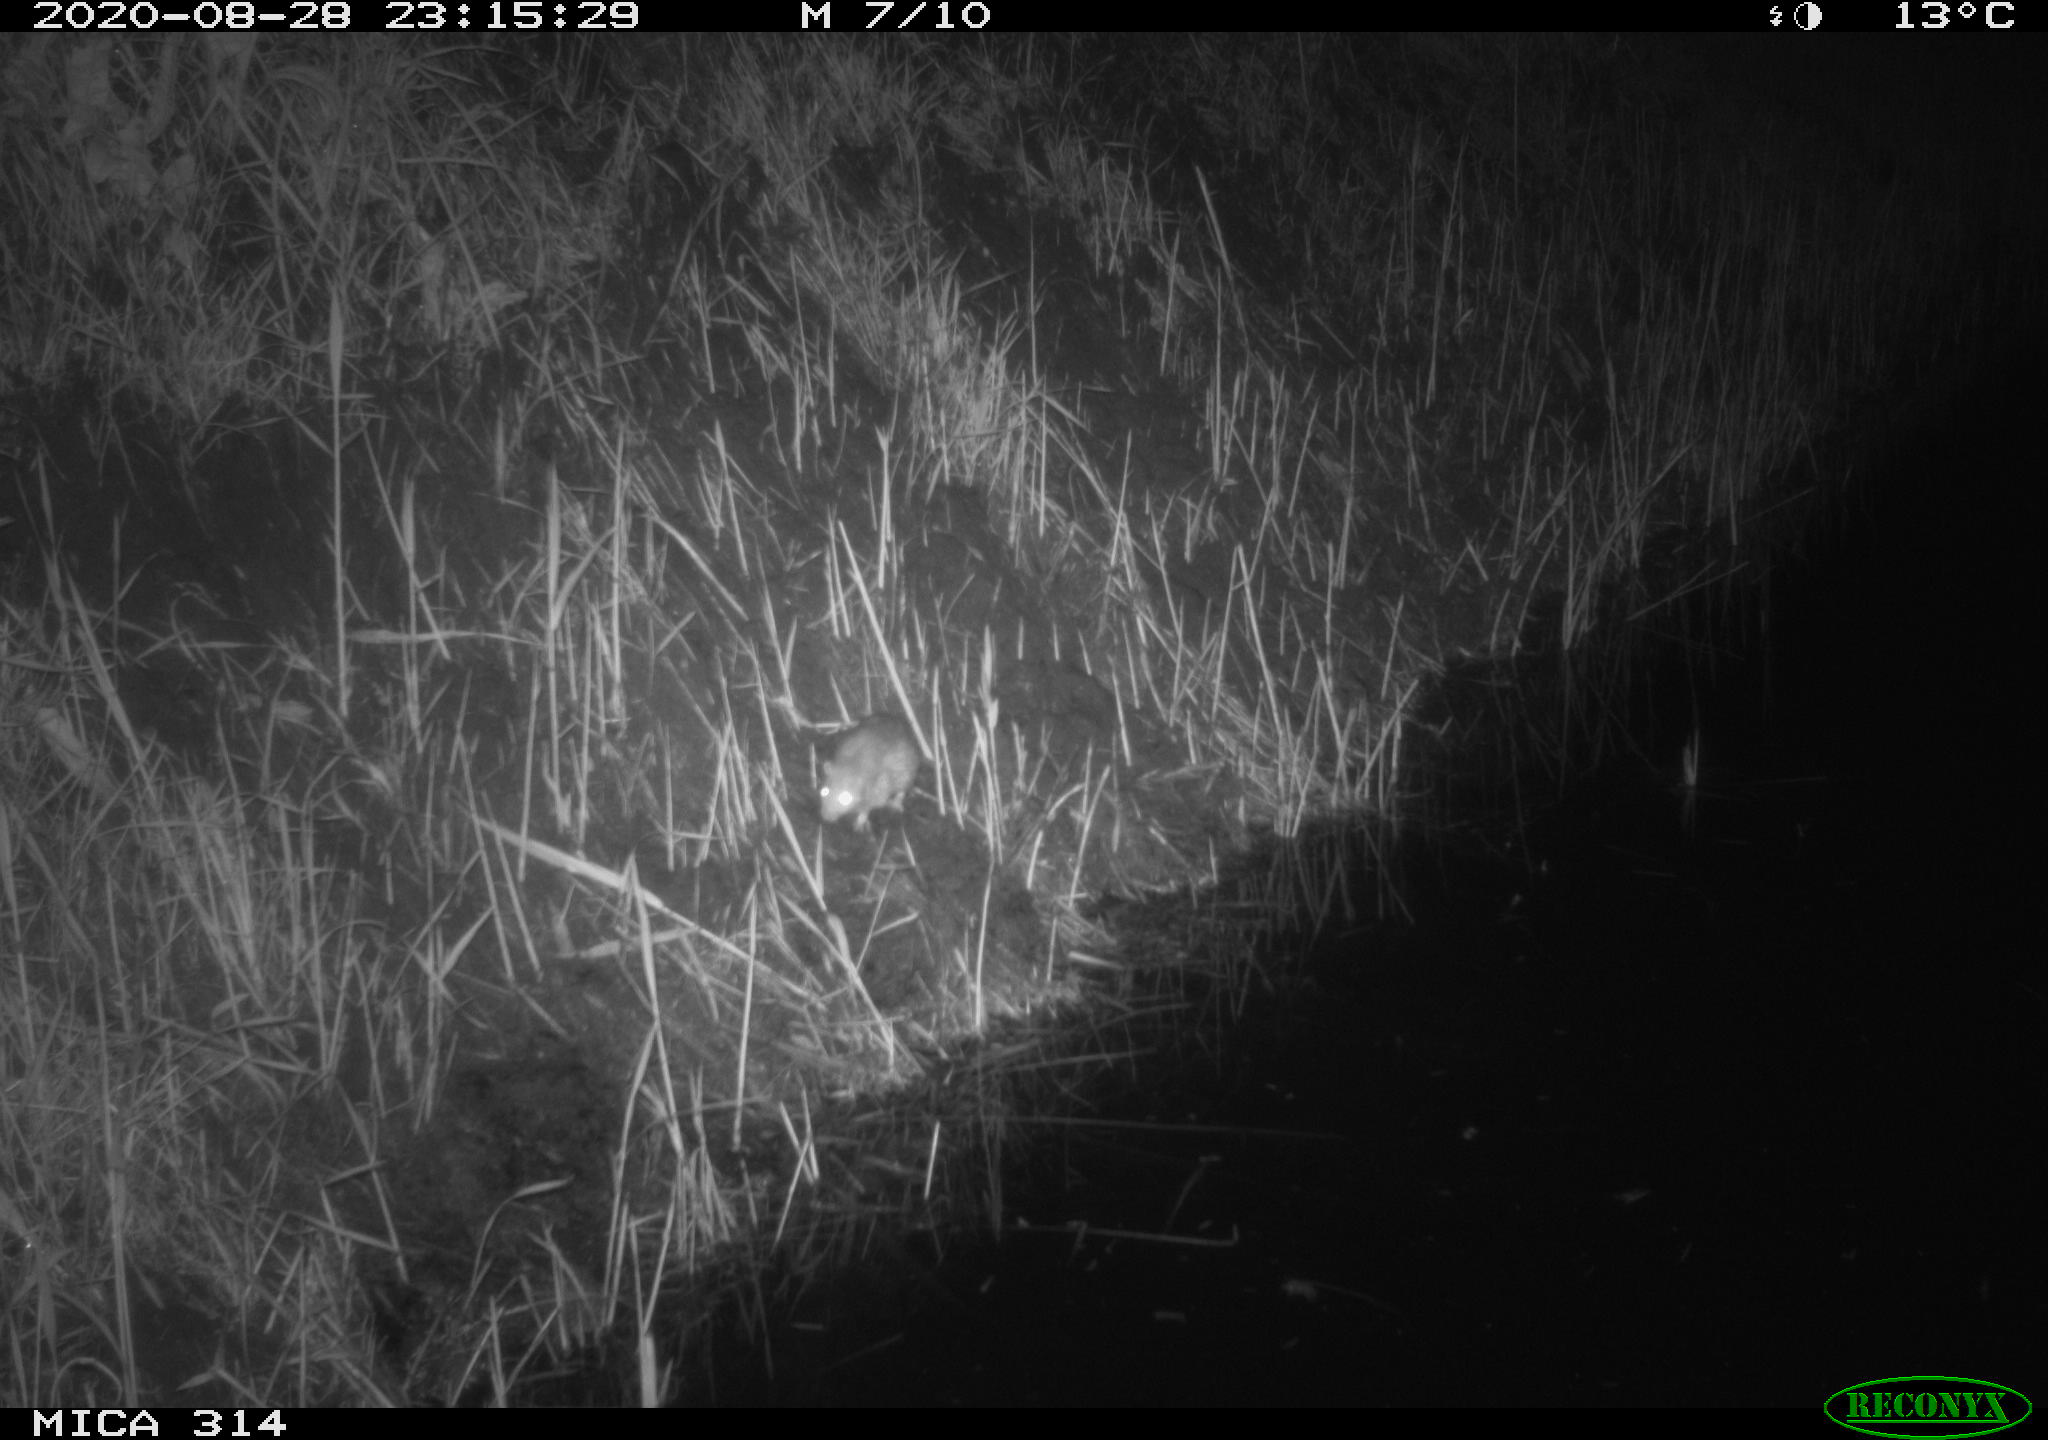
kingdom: Animalia
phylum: Chordata
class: Mammalia
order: Rodentia
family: Muridae
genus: Rattus
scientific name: Rattus norvegicus
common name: Brown rat
